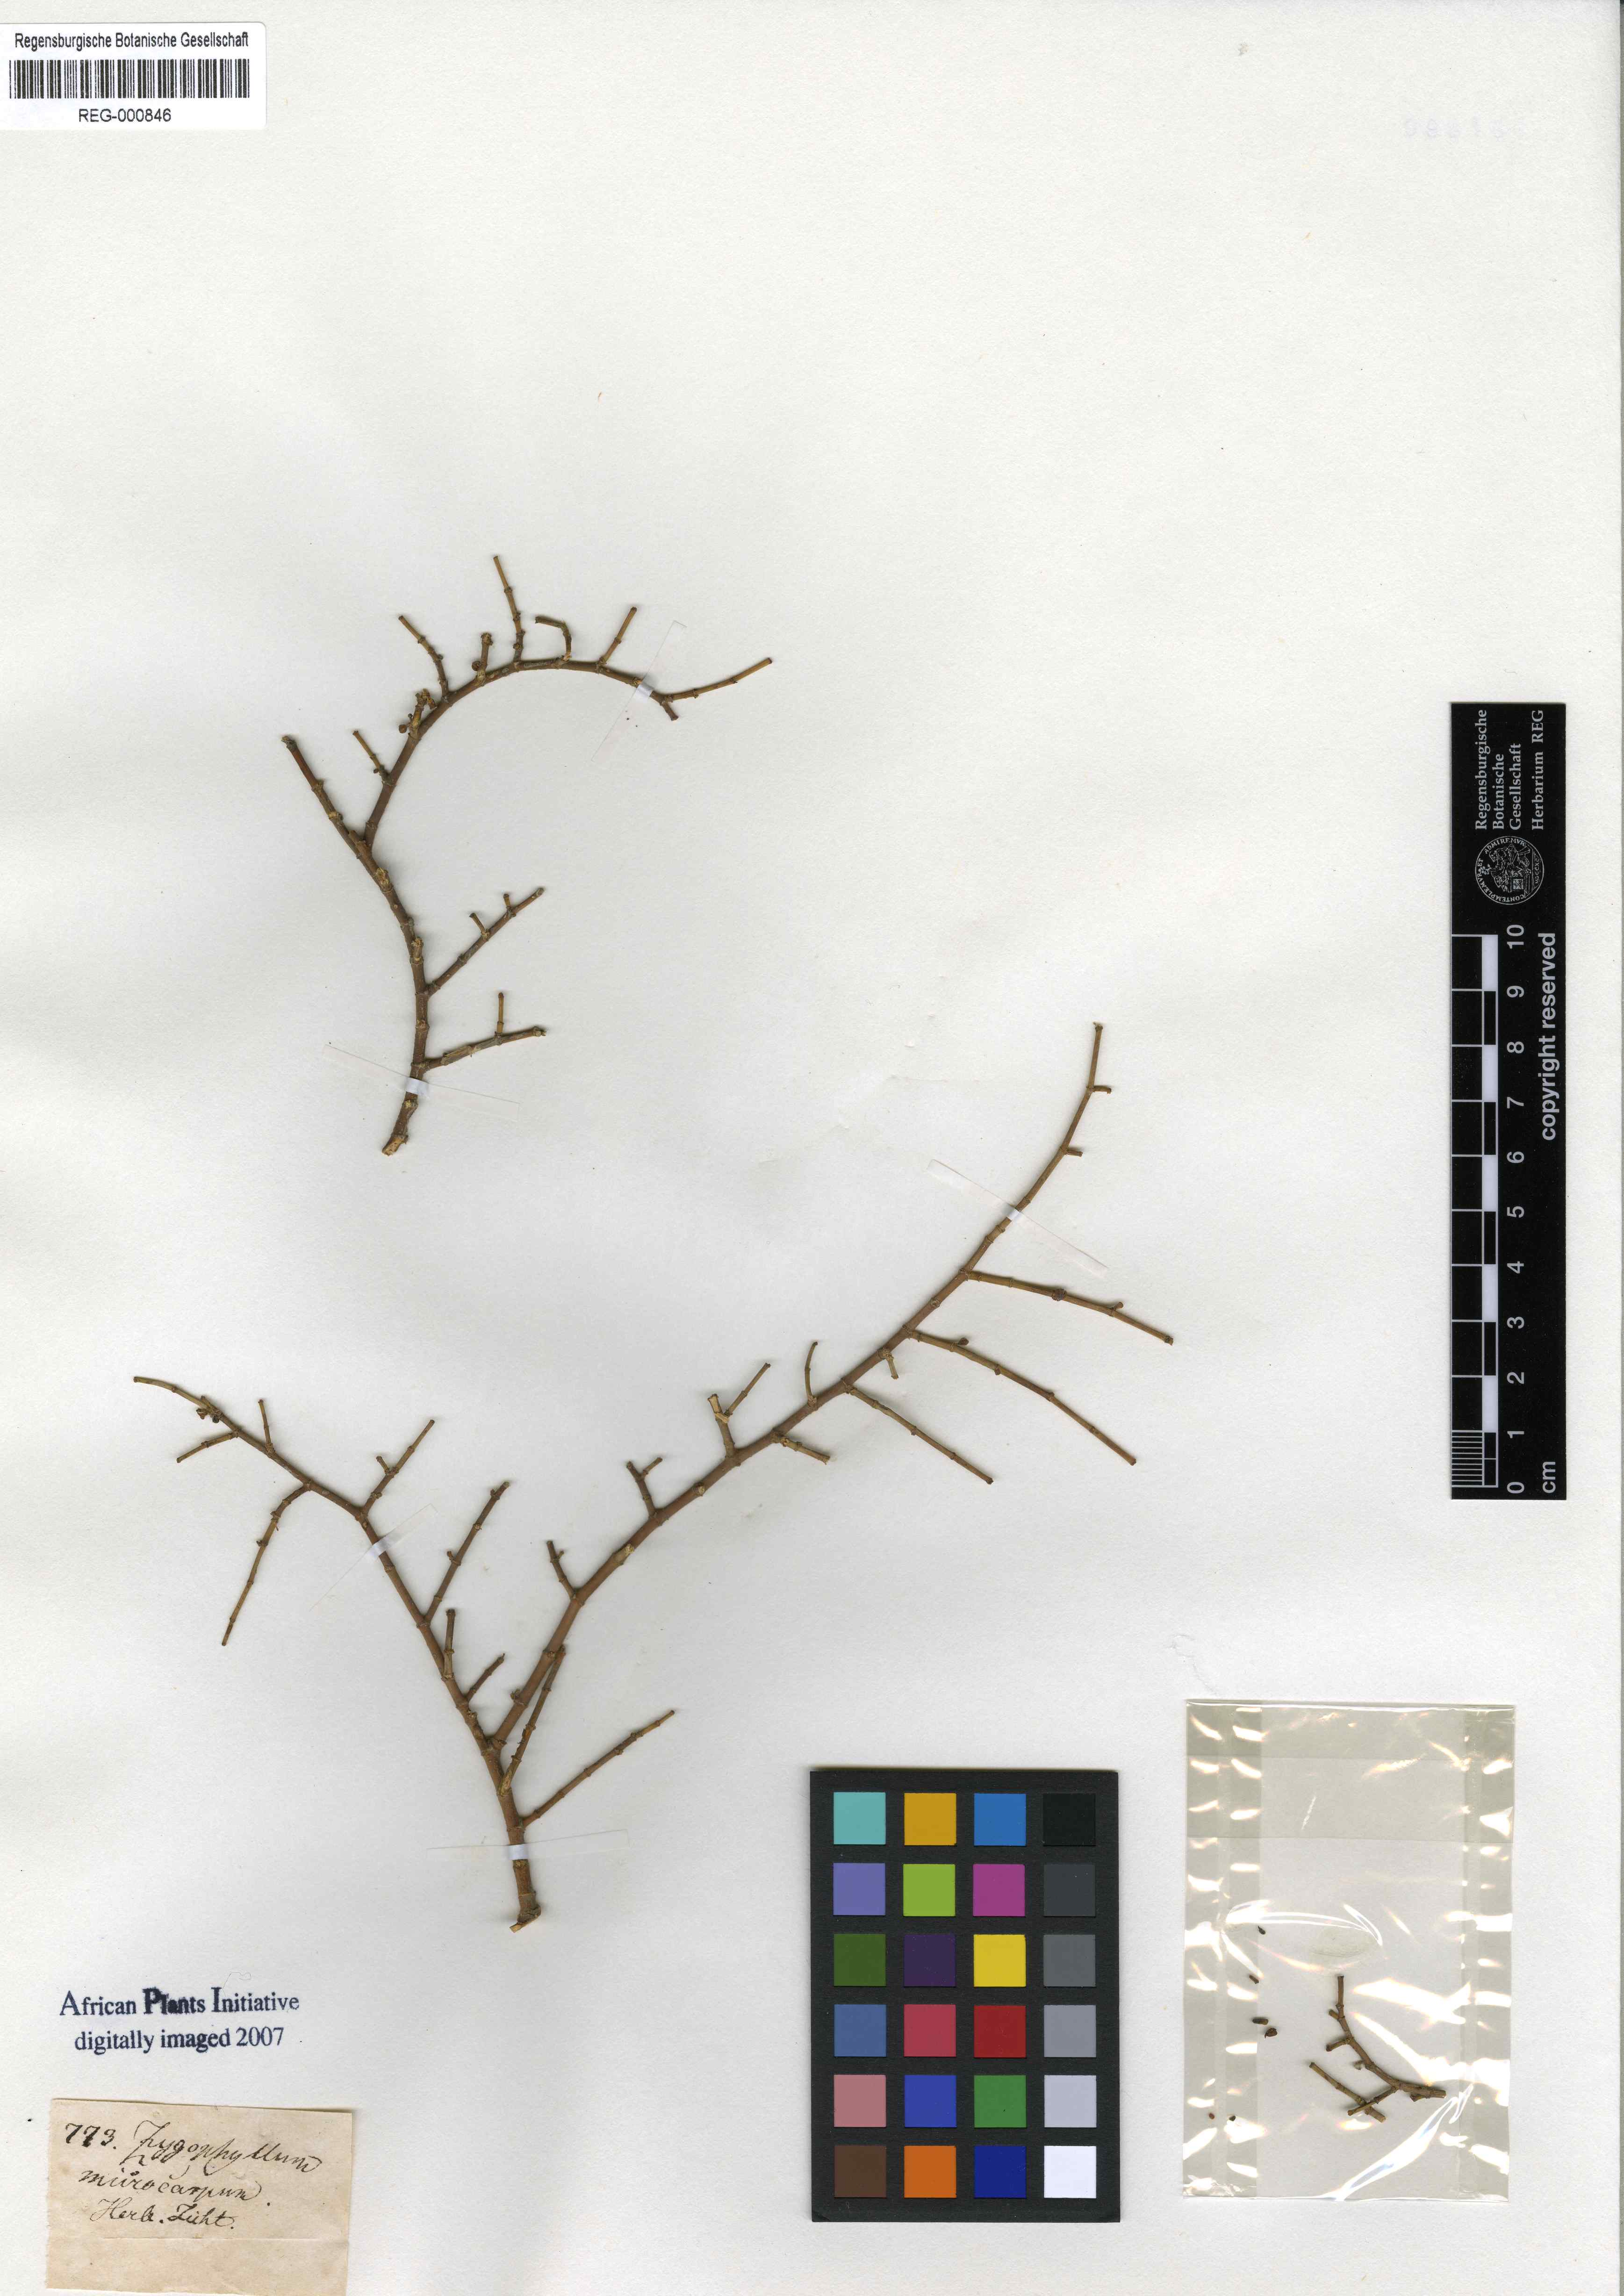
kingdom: Plantae
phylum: Tracheophyta
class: Magnoliopsida
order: Zygophyllales
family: Zygophyllaceae
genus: Tetraena
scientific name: Tetraena microcarpa
